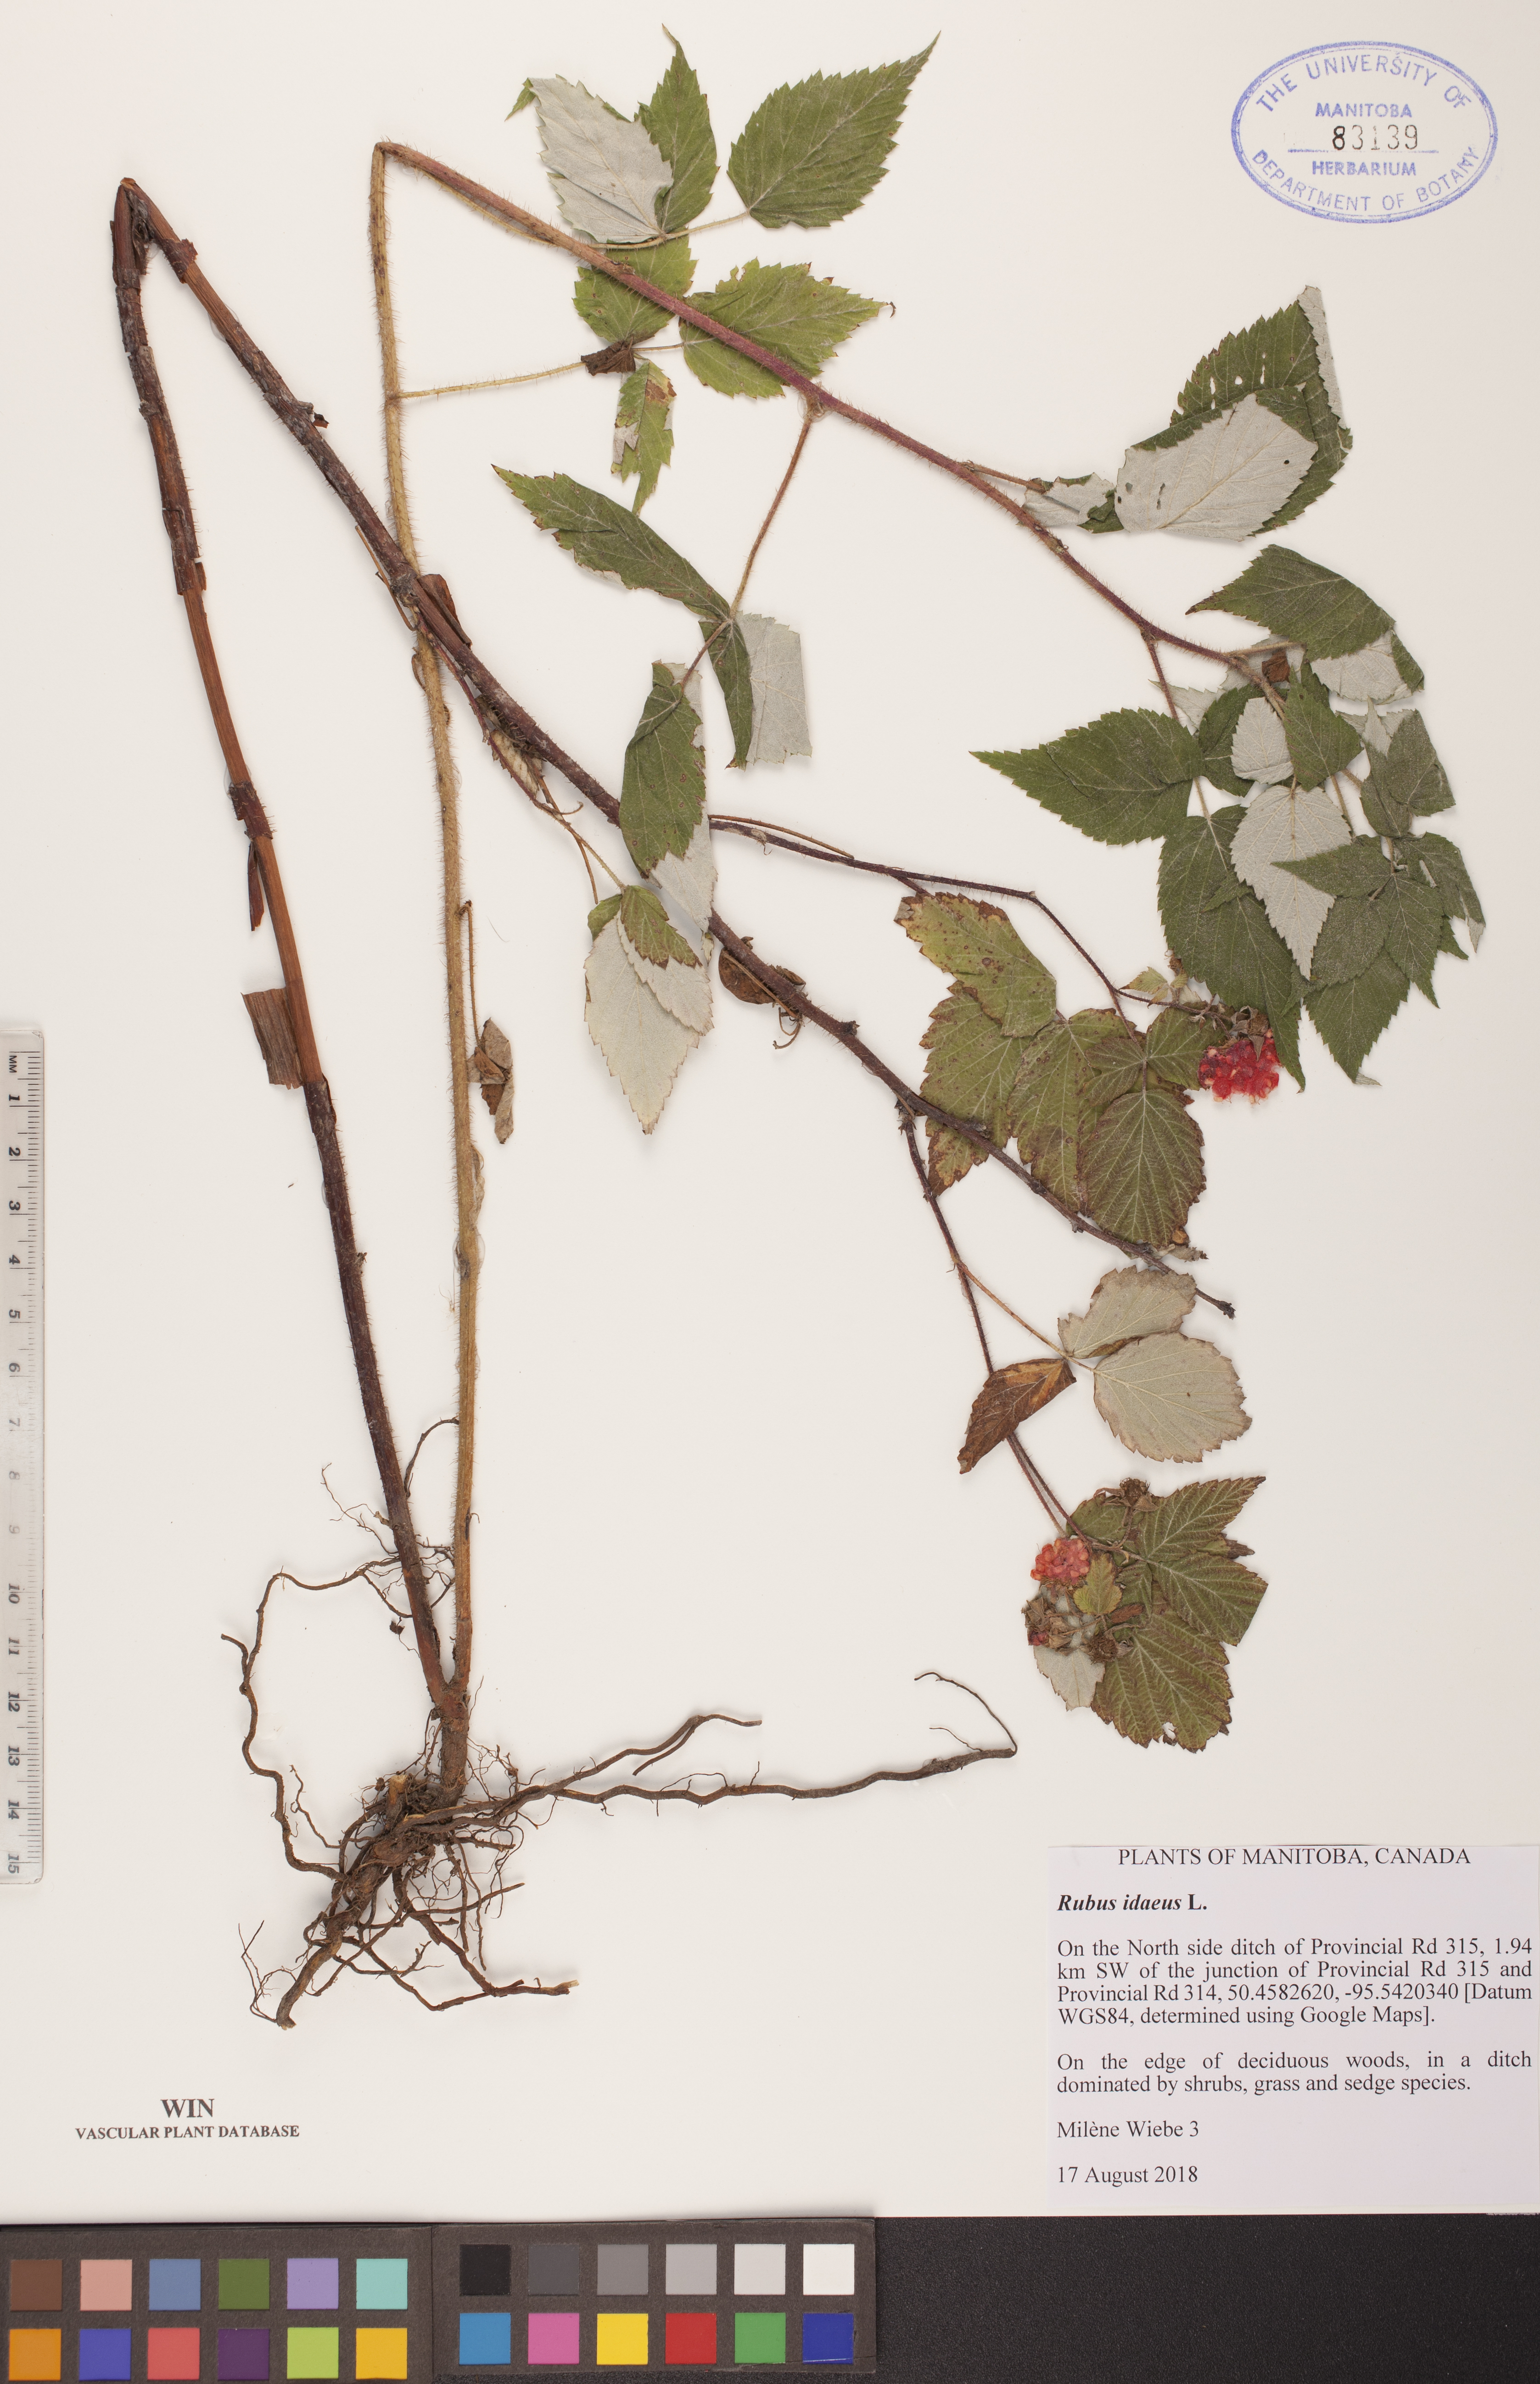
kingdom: Plantae
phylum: Tracheophyta
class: Magnoliopsida
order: Rosales
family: Rosaceae
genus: Rubus
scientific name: Rubus idaeus
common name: Raspberry
